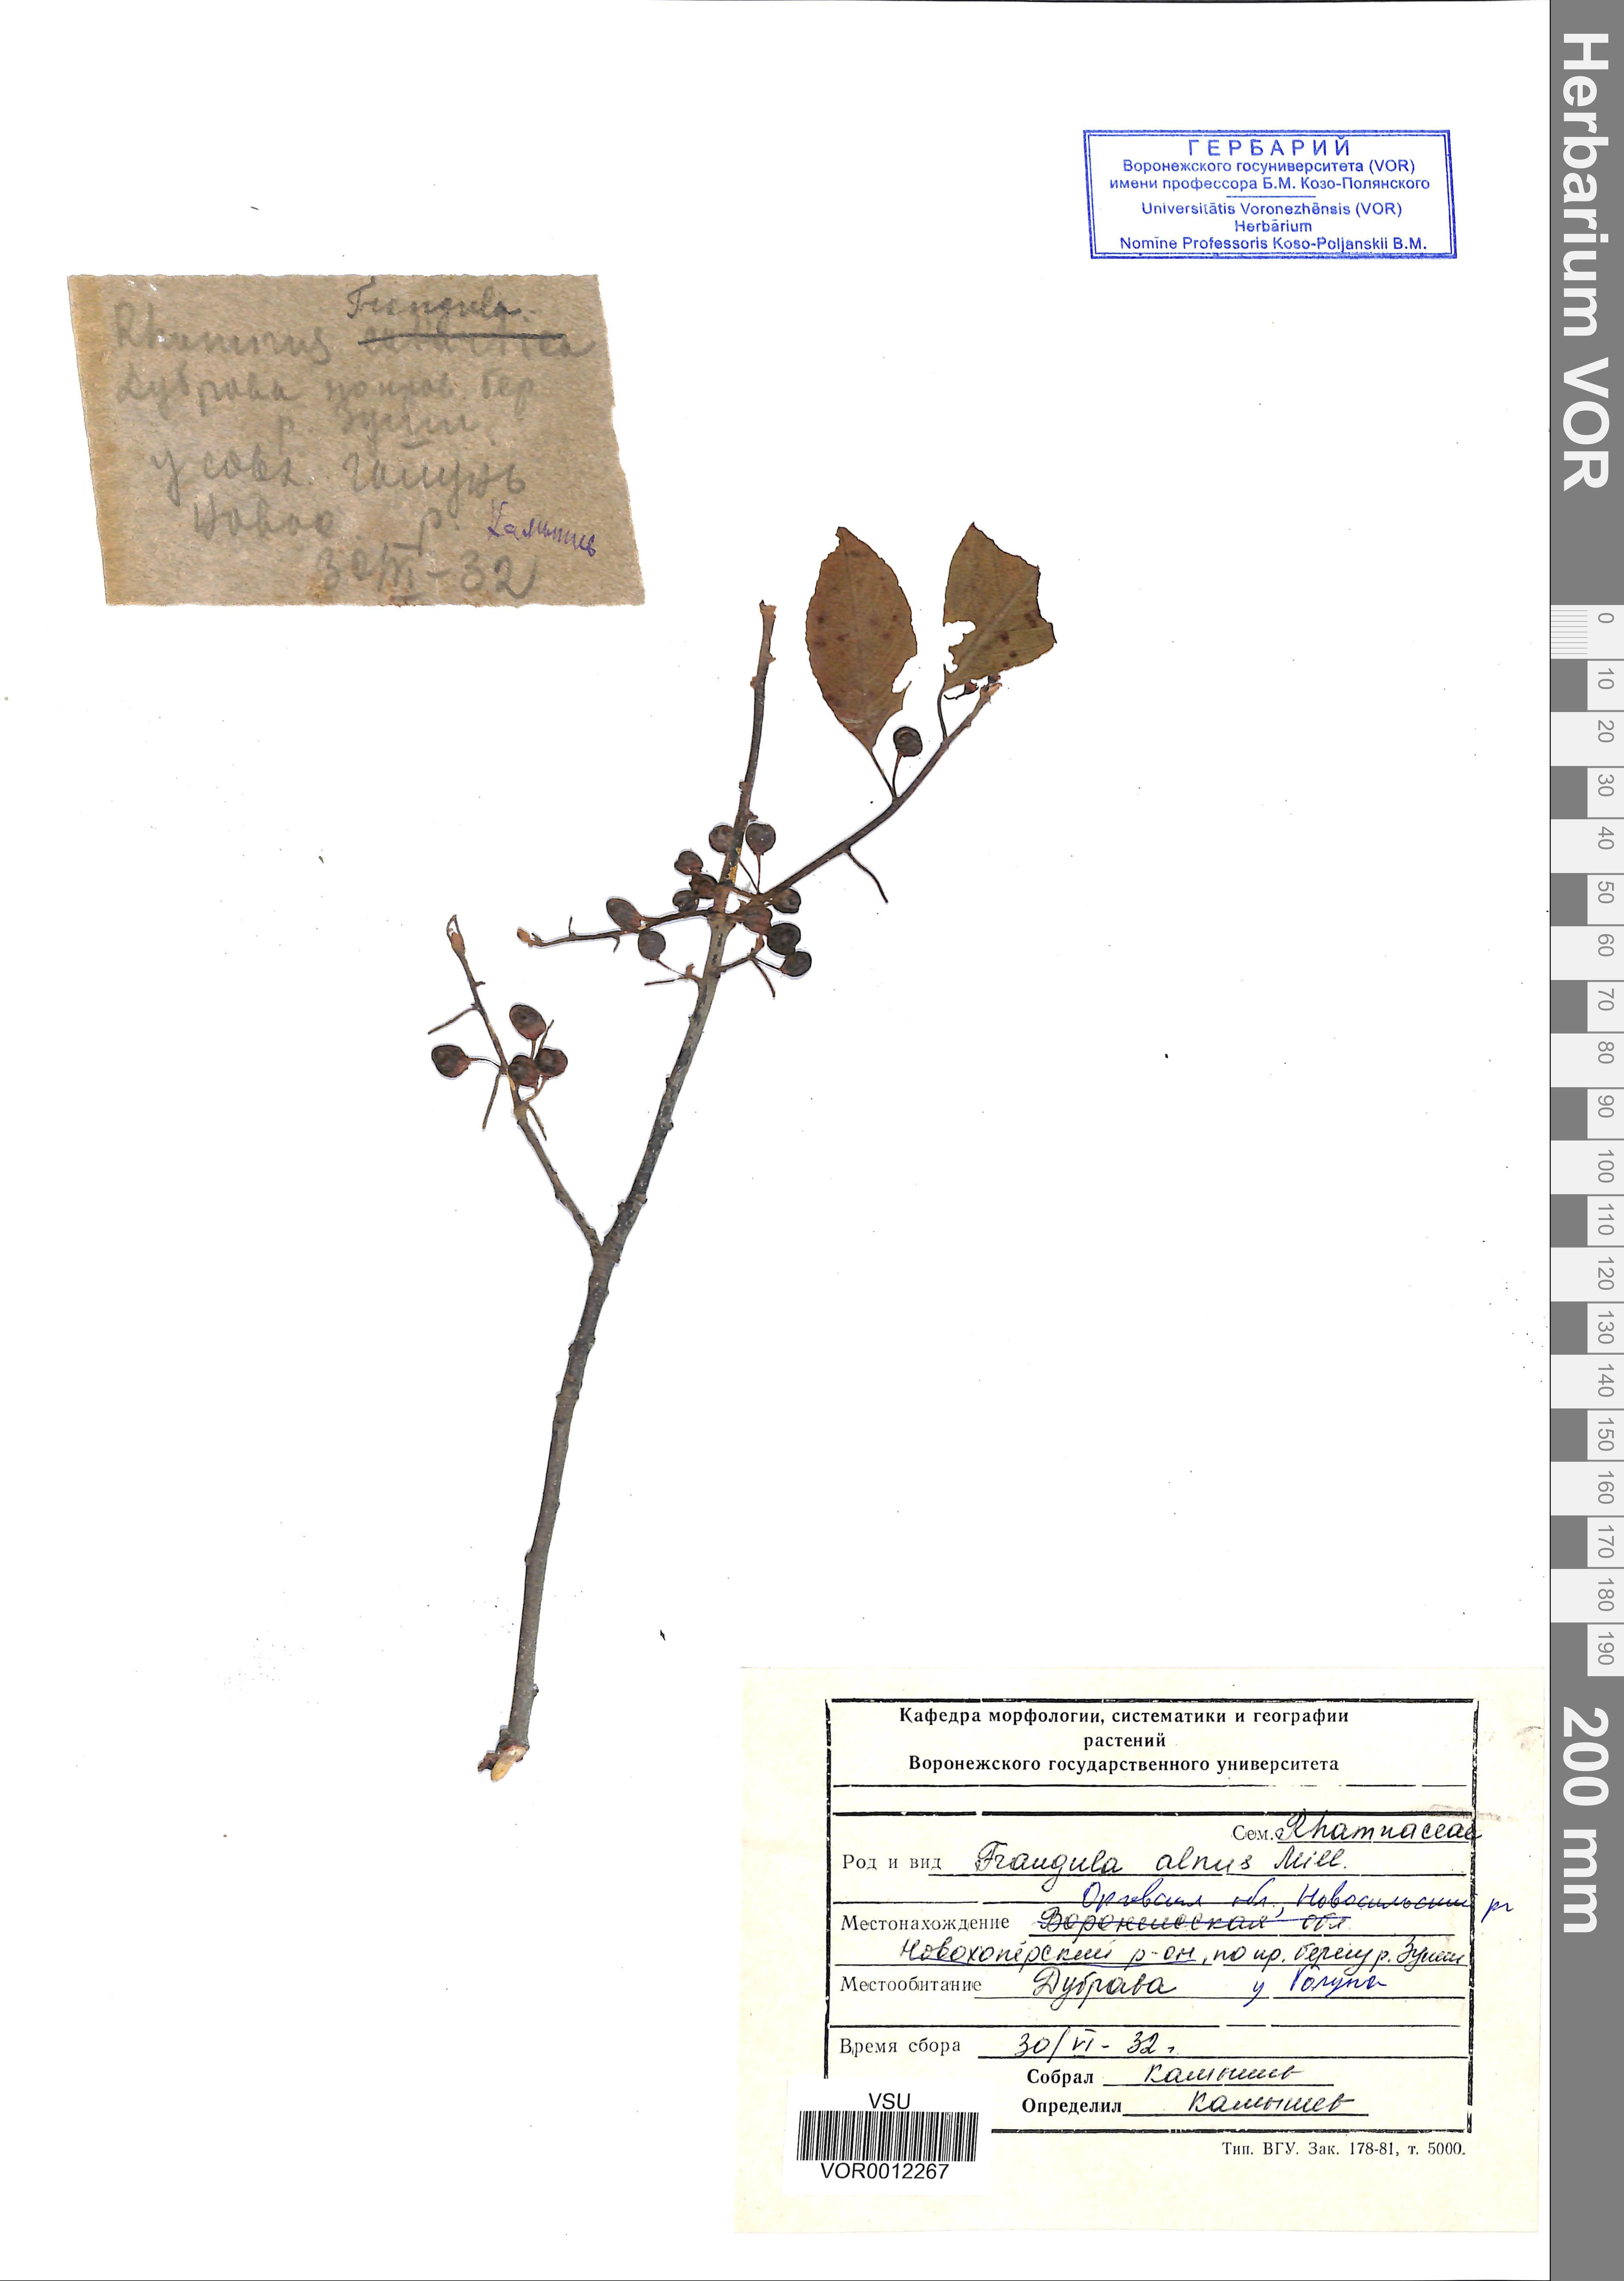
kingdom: Plantae
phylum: Tracheophyta
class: Magnoliopsida
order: Rosales
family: Rhamnaceae
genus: Frangula
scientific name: Frangula alnus
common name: Alder buckthorn
